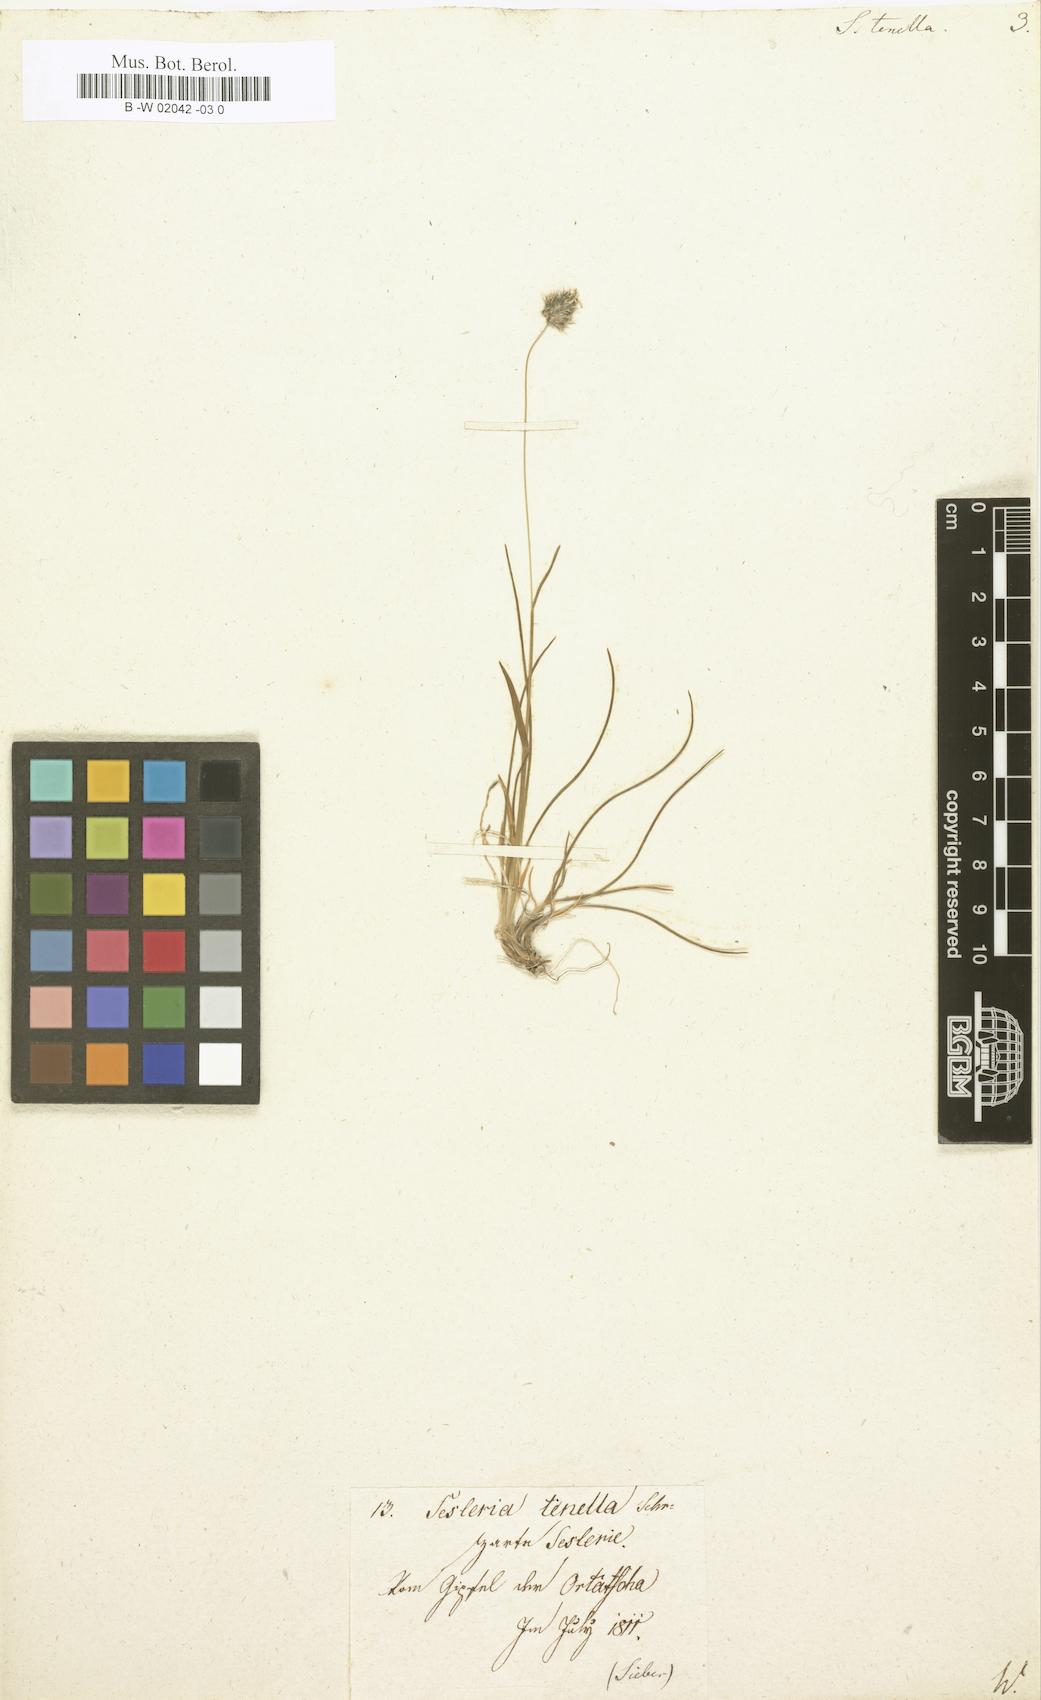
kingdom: Plantae
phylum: Tracheophyta
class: Liliopsida
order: Poales
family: Poaceae
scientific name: Poaceae
